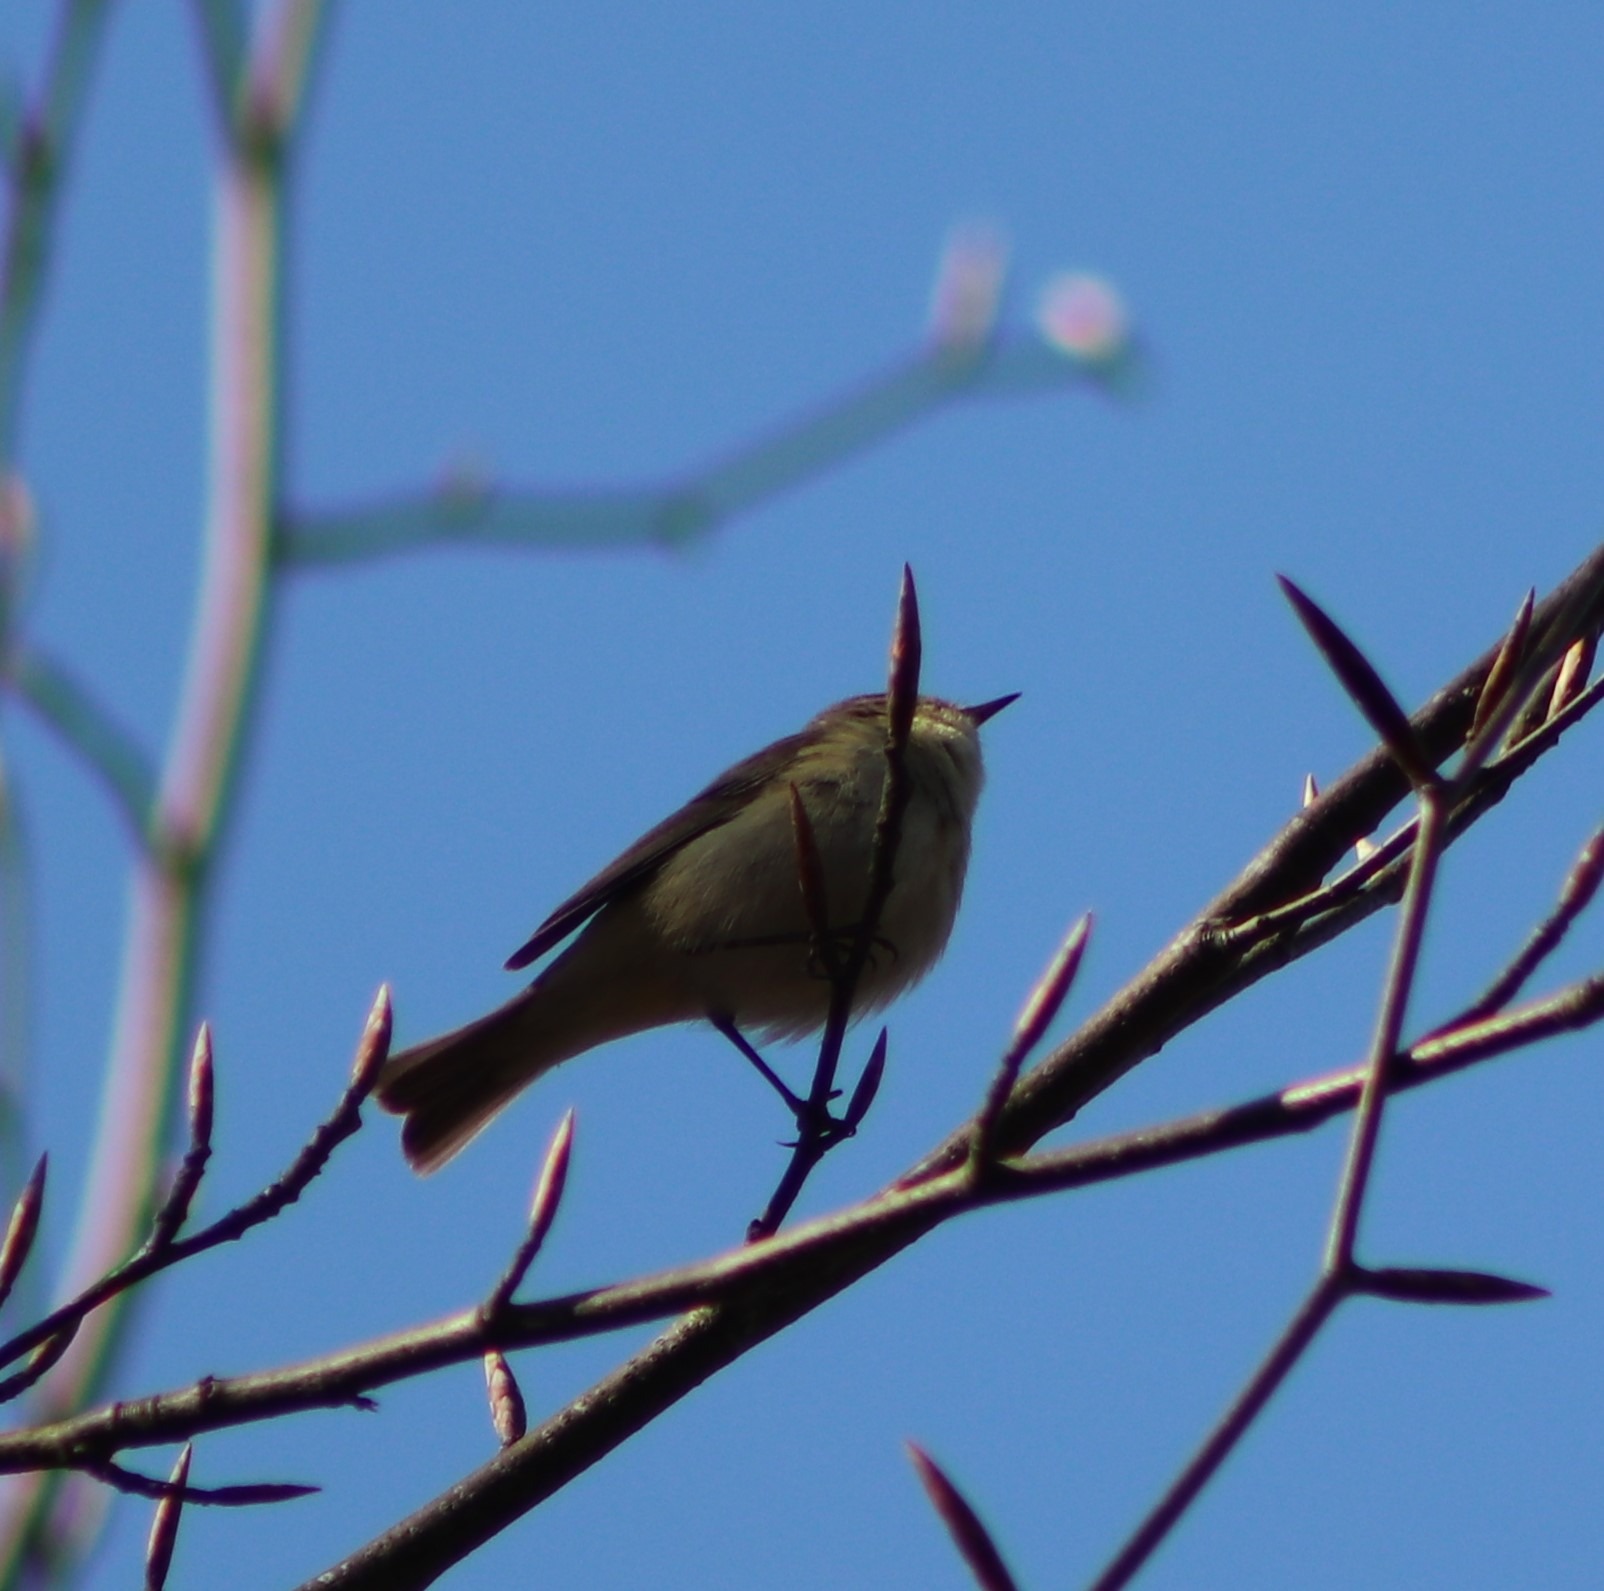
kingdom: Animalia
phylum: Chordata
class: Aves
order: Passeriformes
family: Phylloscopidae
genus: Phylloscopus
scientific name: Phylloscopus collybita
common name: Gransanger
